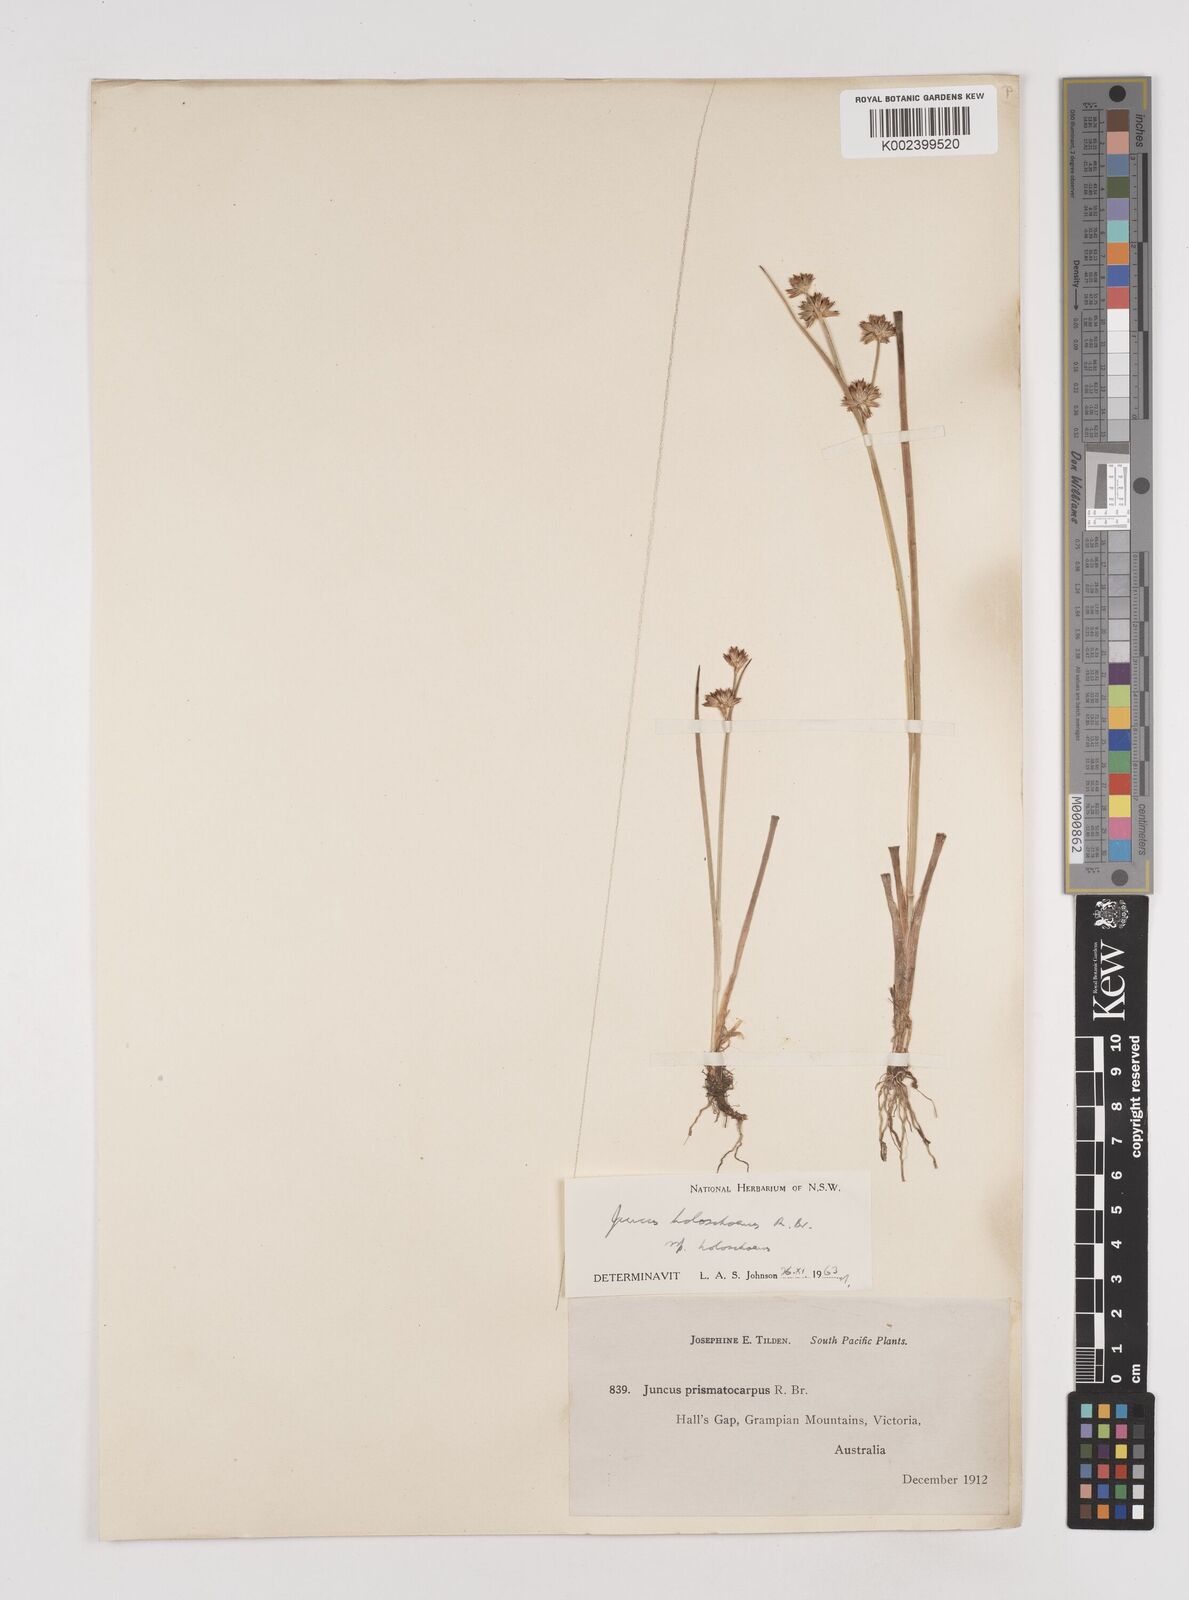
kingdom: Plantae
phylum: Tracheophyta
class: Liliopsida
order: Poales
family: Juncaceae
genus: Juncus
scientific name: Juncus holoschoenus
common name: Joint-leaf rush
